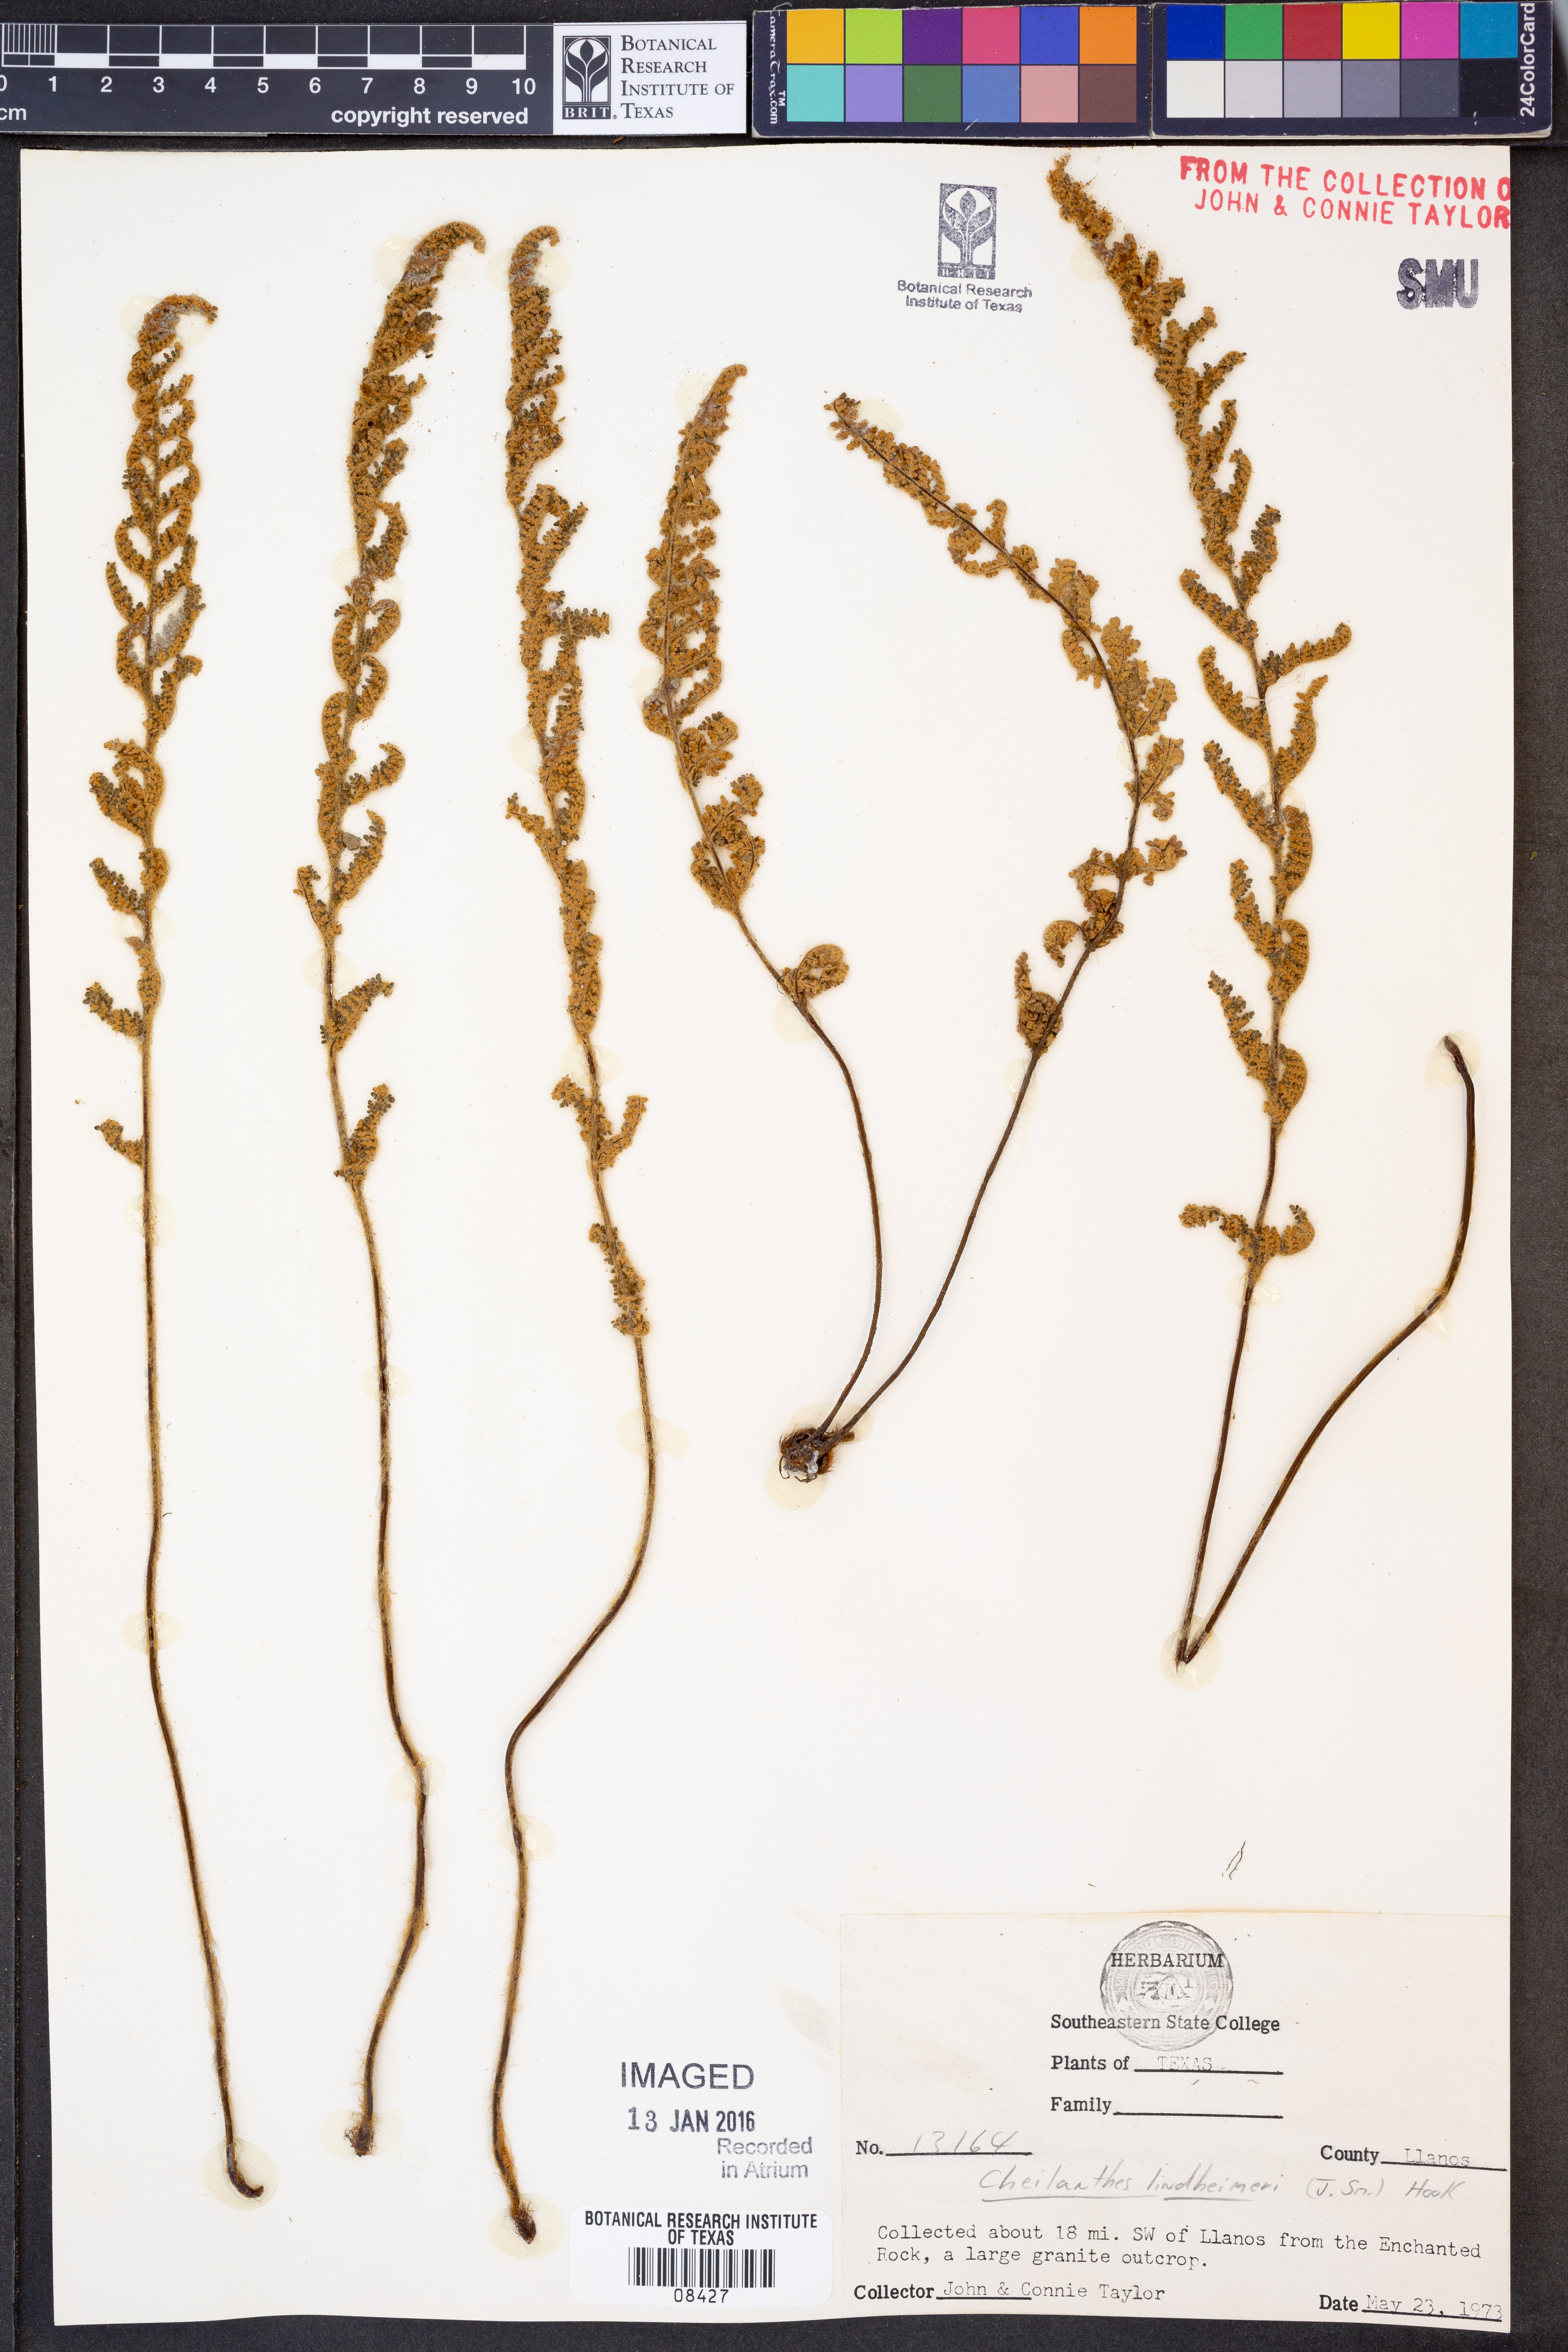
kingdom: Plantae
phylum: Tracheophyta
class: Polypodiopsida
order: Polypodiales
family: Pteridaceae
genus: Myriopteris
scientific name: Myriopteris lindheimeri
